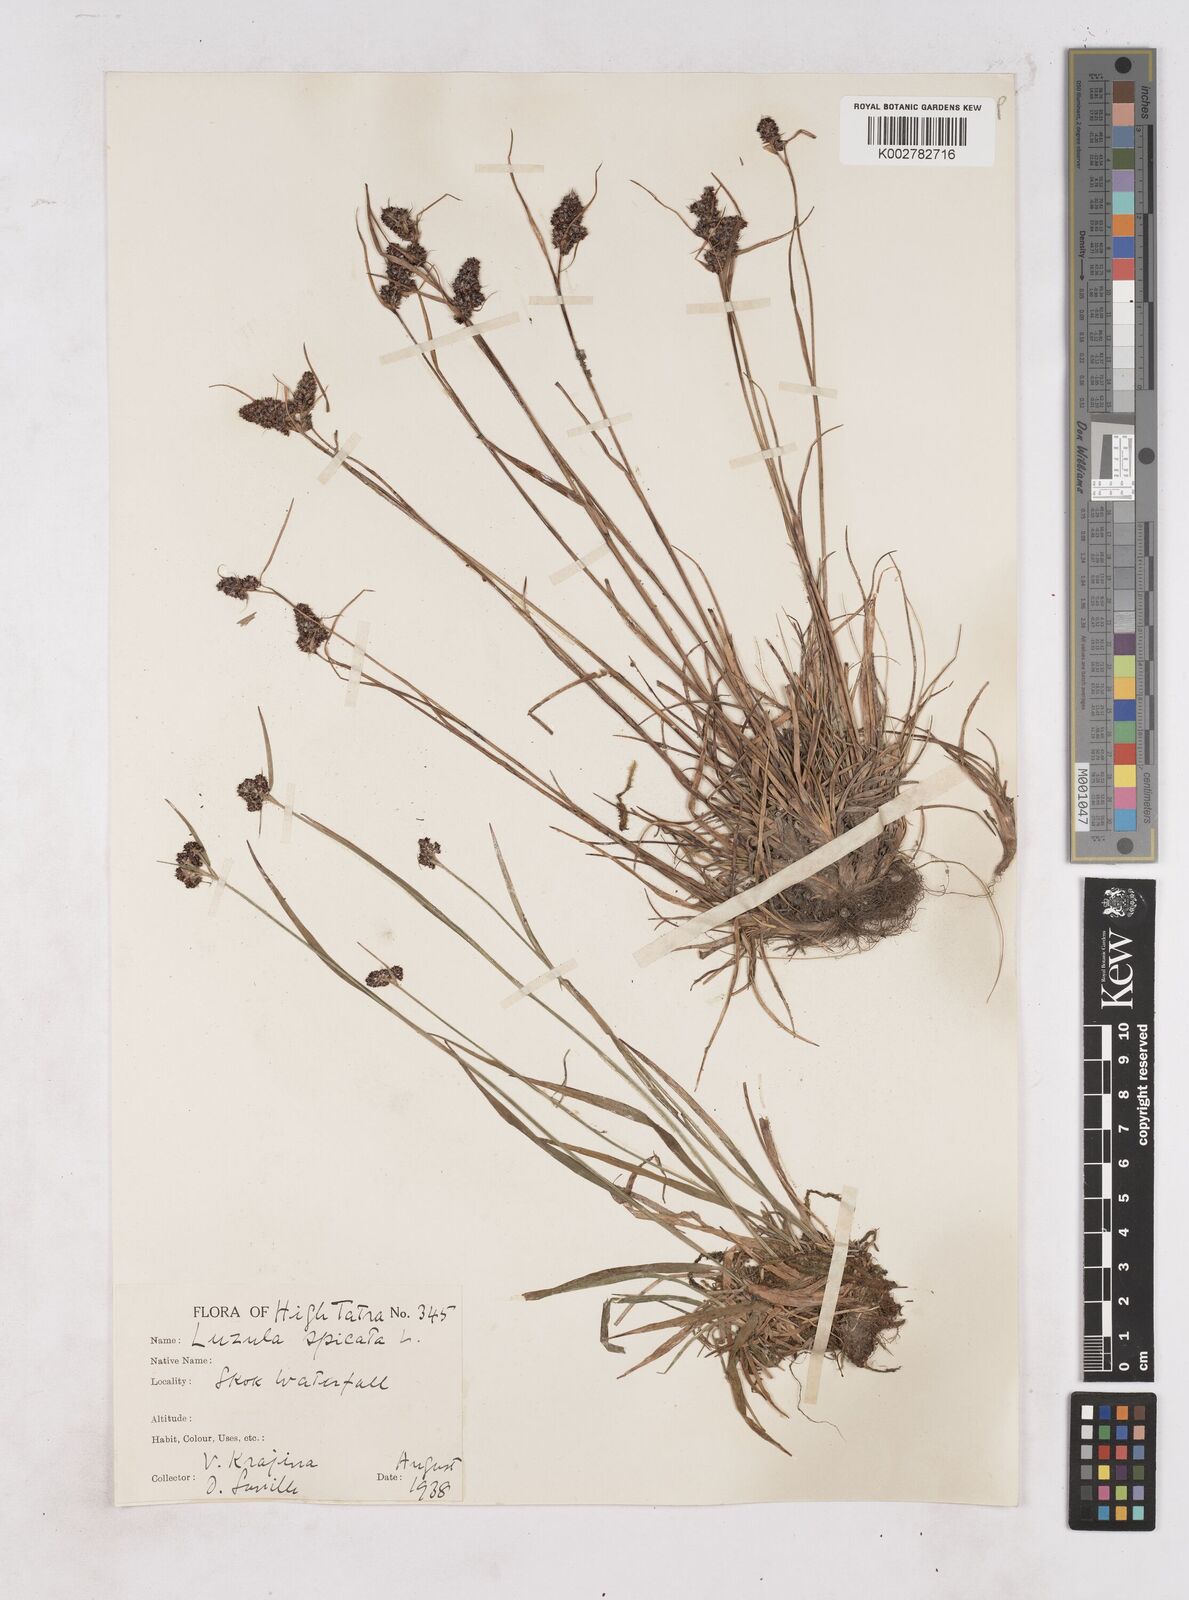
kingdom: Plantae
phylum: Tracheophyta
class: Liliopsida
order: Poales
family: Juncaceae
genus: Luzula
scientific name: Luzula spicata
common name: Spiked wood-rush
